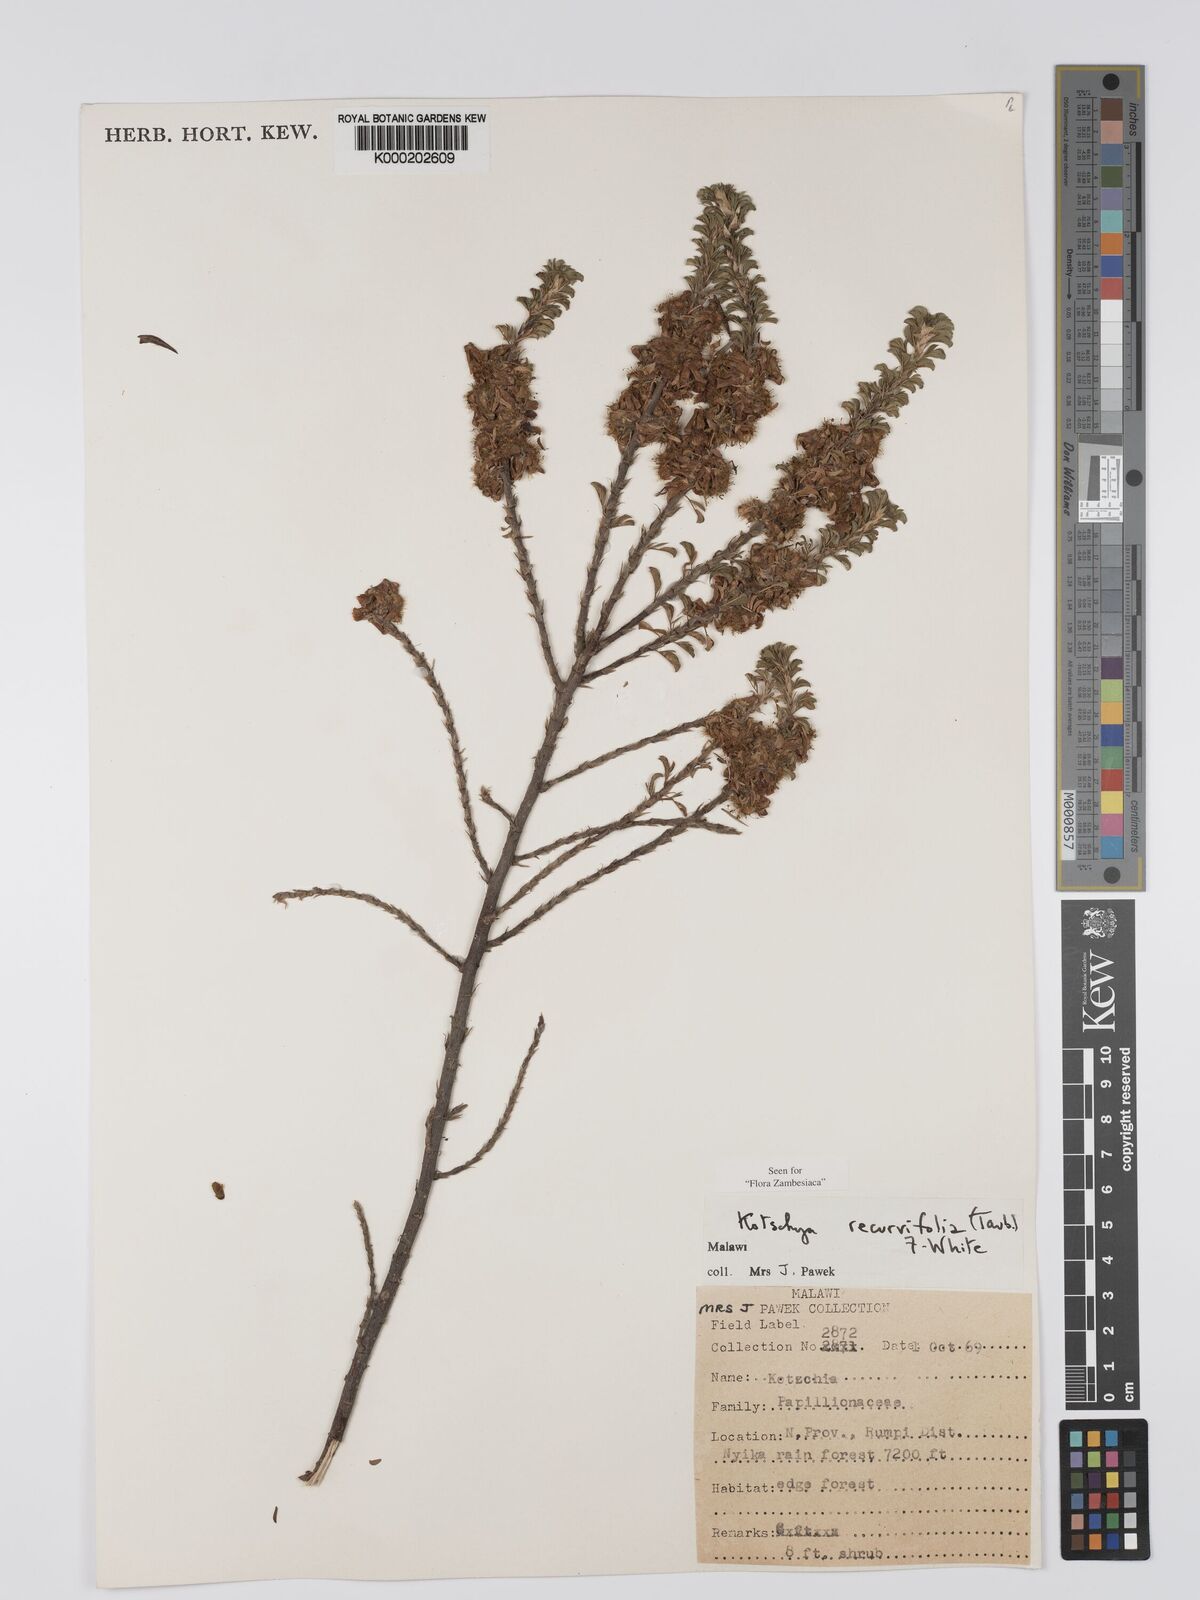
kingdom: Plantae
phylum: Tracheophyta
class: Magnoliopsida
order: Fabales
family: Fabaceae
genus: Kotschya
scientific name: Kotschya recurvifolia
